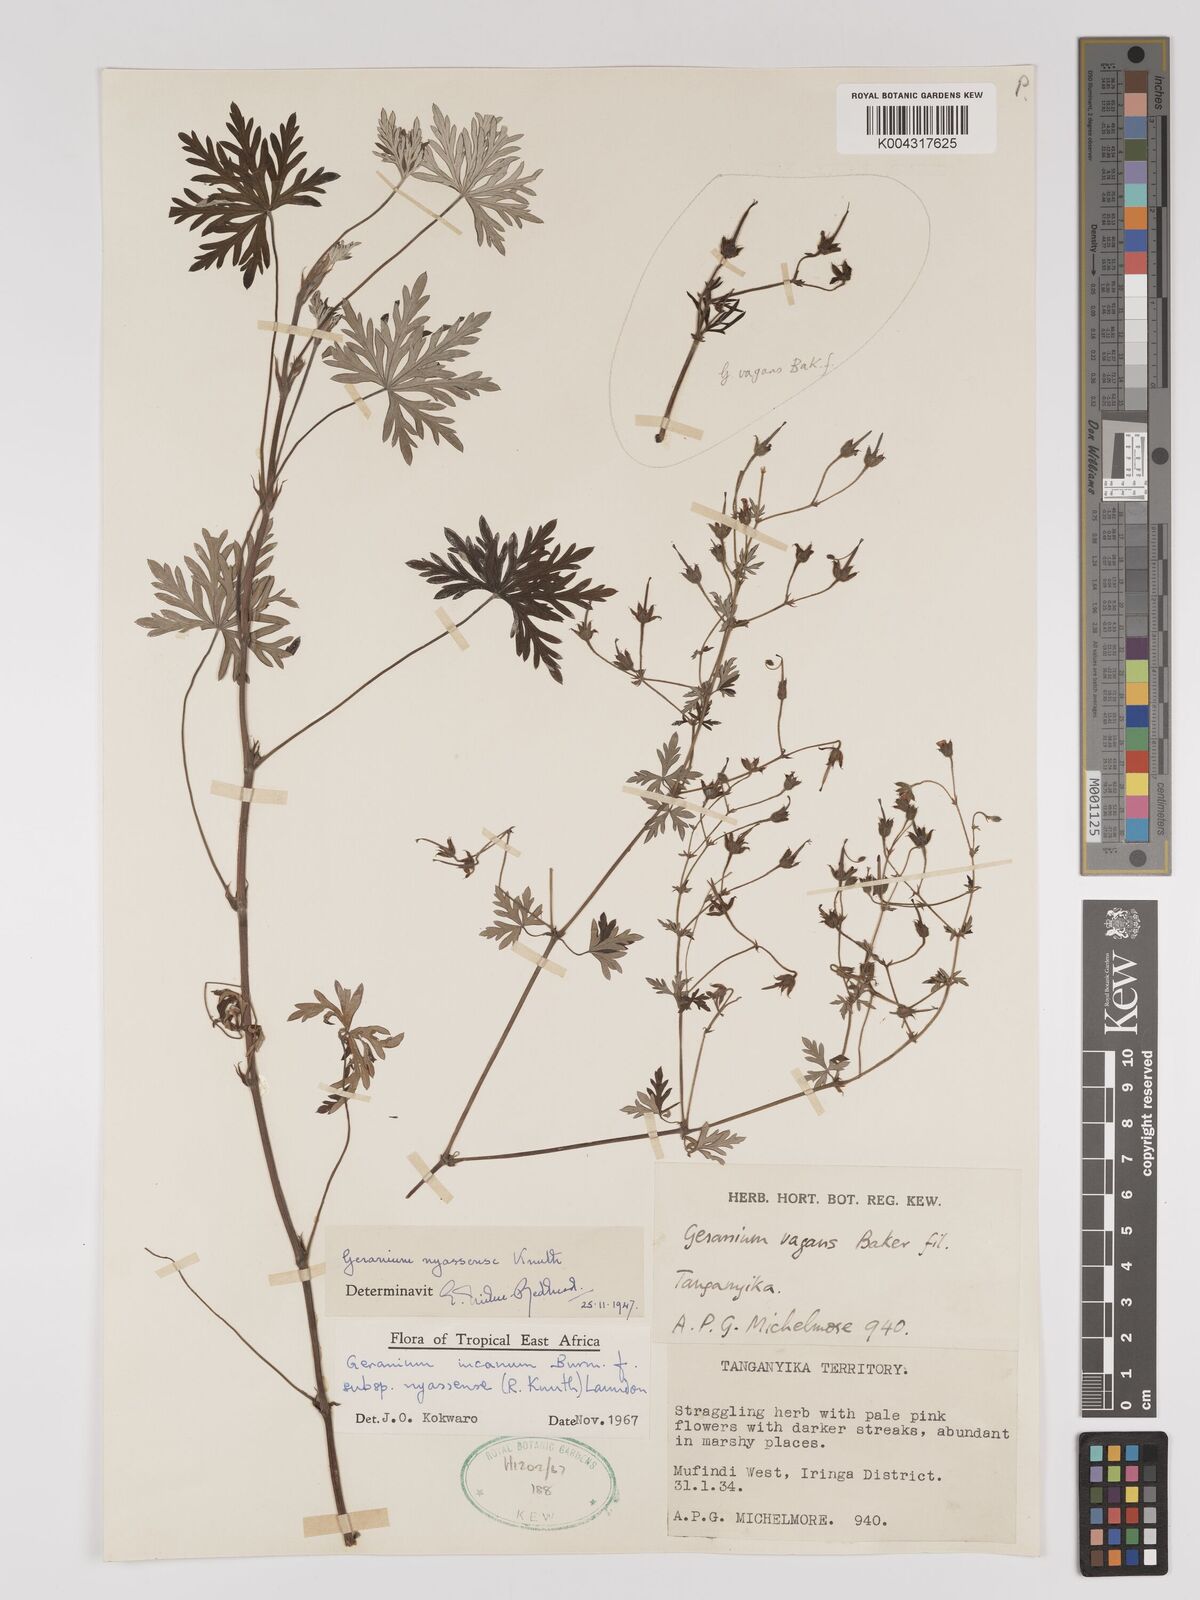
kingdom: Plantae
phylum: Tracheophyta
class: Magnoliopsida
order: Geraniales
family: Geraniaceae
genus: Geranium
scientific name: Geranium incanum
